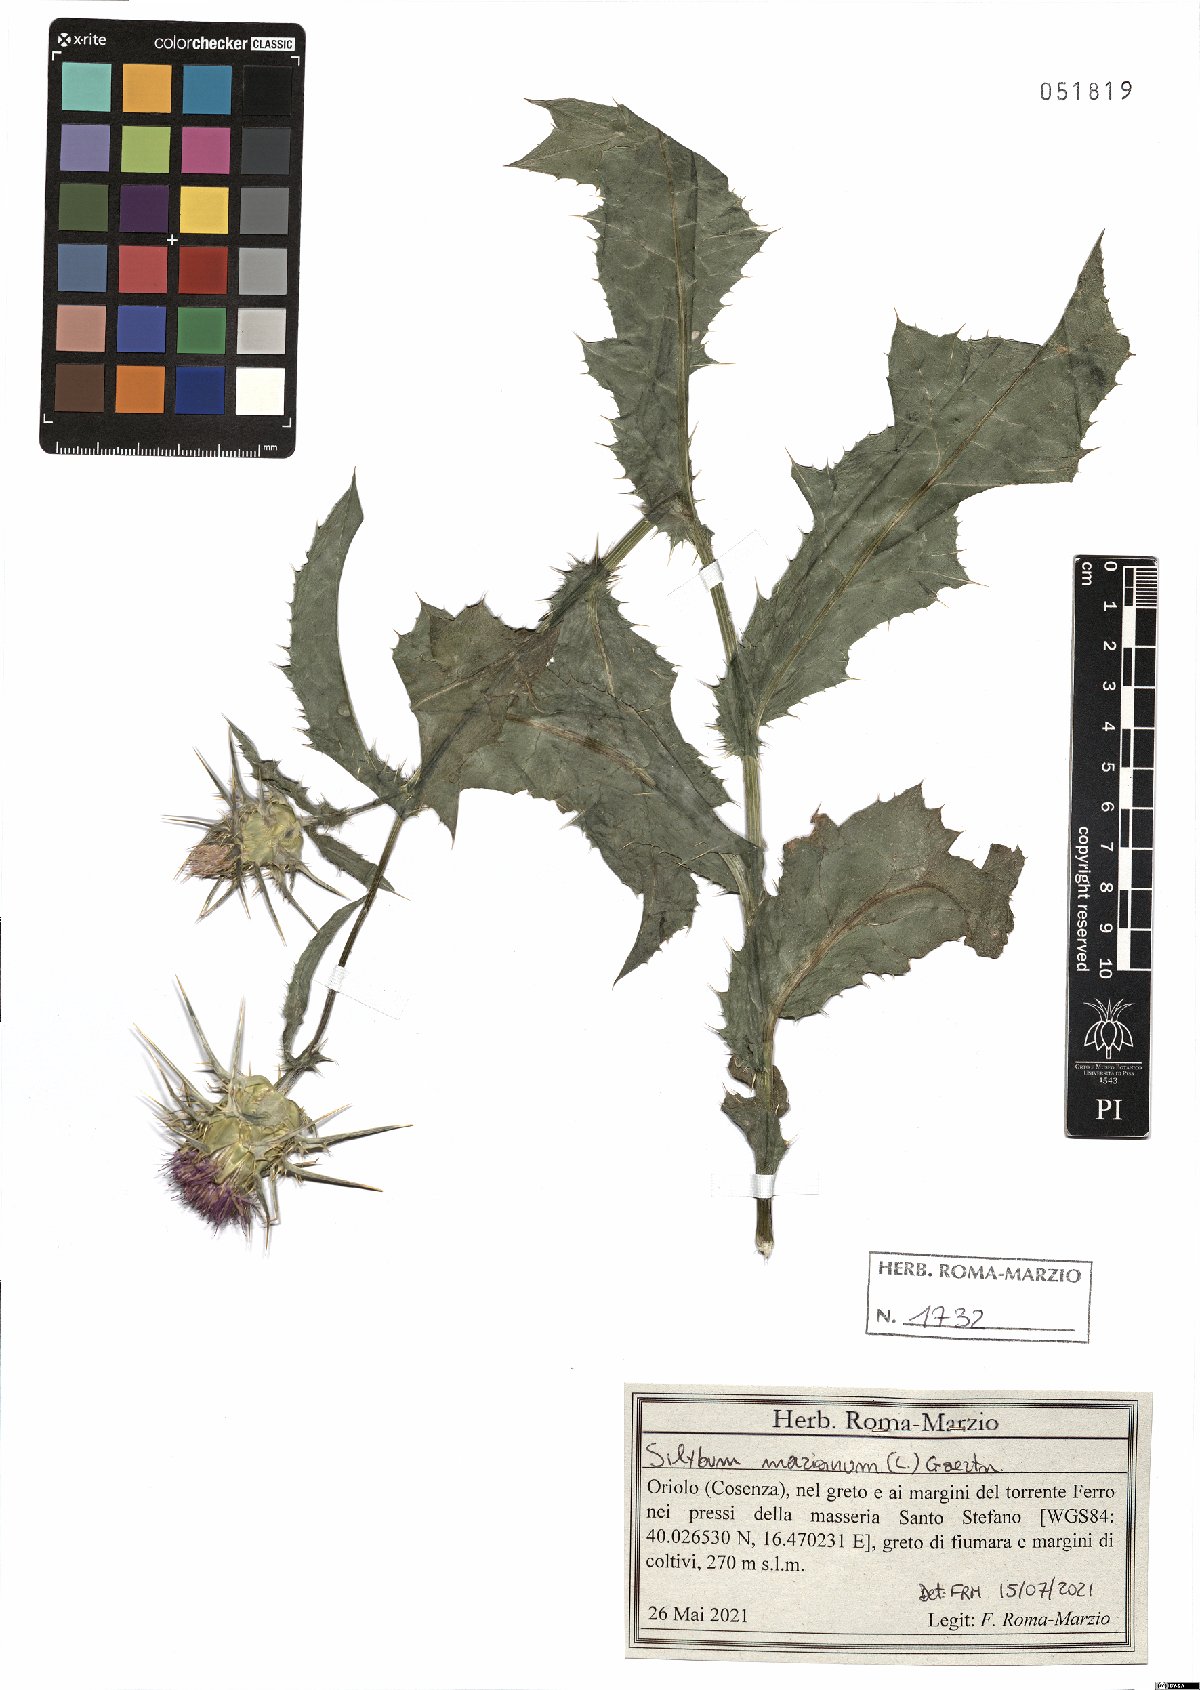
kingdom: Plantae
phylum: Tracheophyta
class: Magnoliopsida
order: Asterales
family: Asteraceae
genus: Silybum
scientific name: Silybum marianum
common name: Milk thistle
